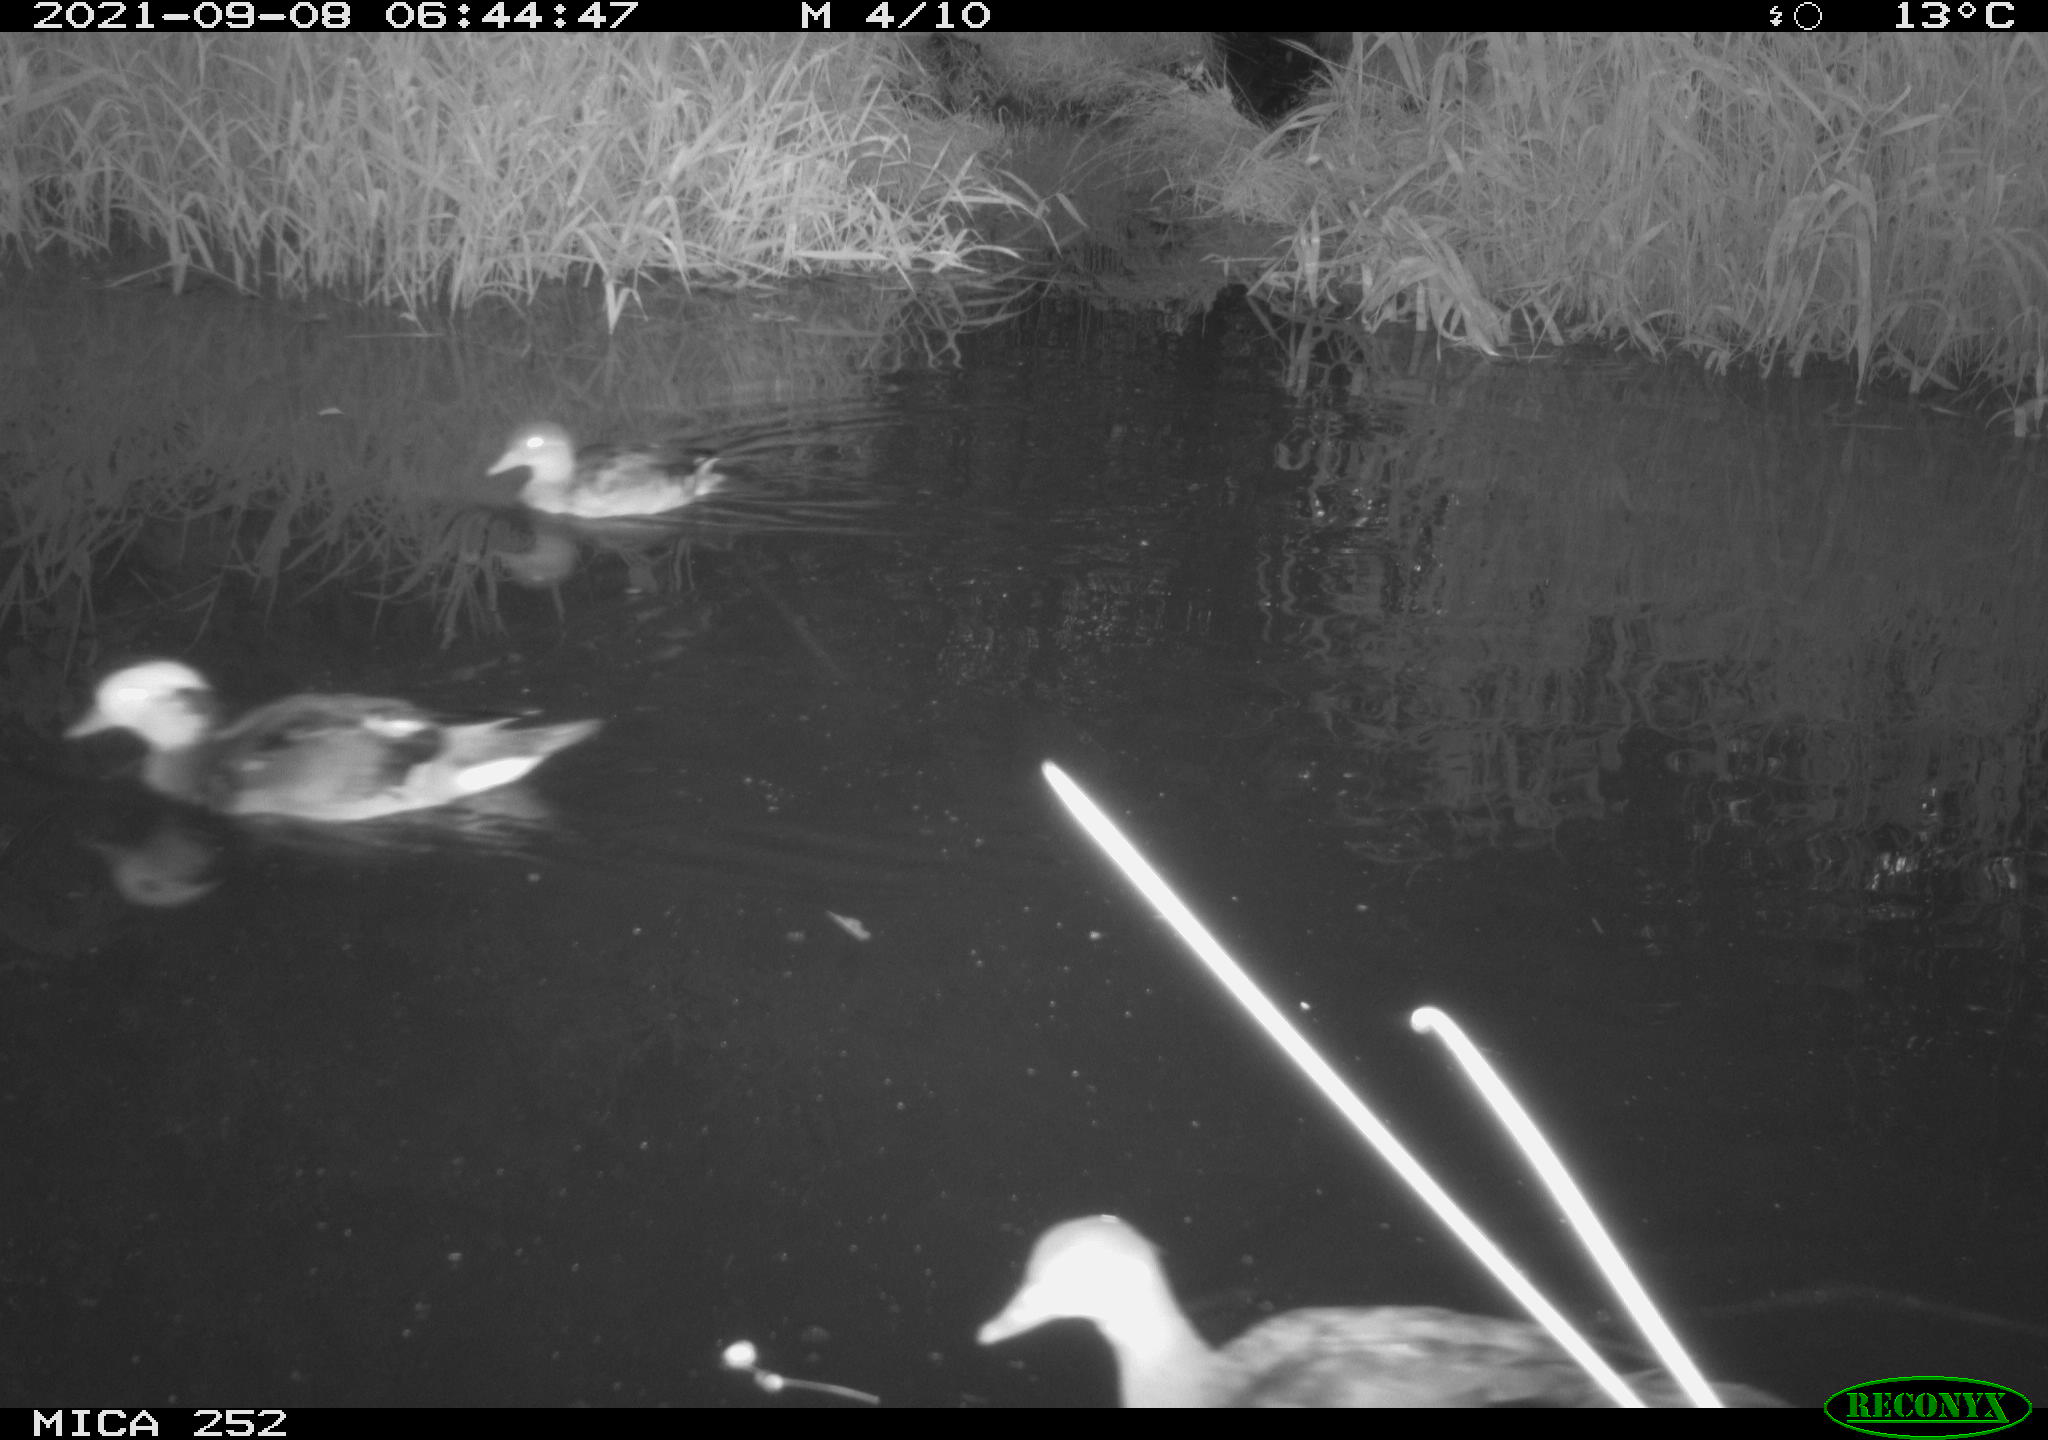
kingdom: Animalia
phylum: Chordata
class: Aves
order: Anseriformes
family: Anatidae
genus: Mareca
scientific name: Mareca strepera
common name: Gadwall
